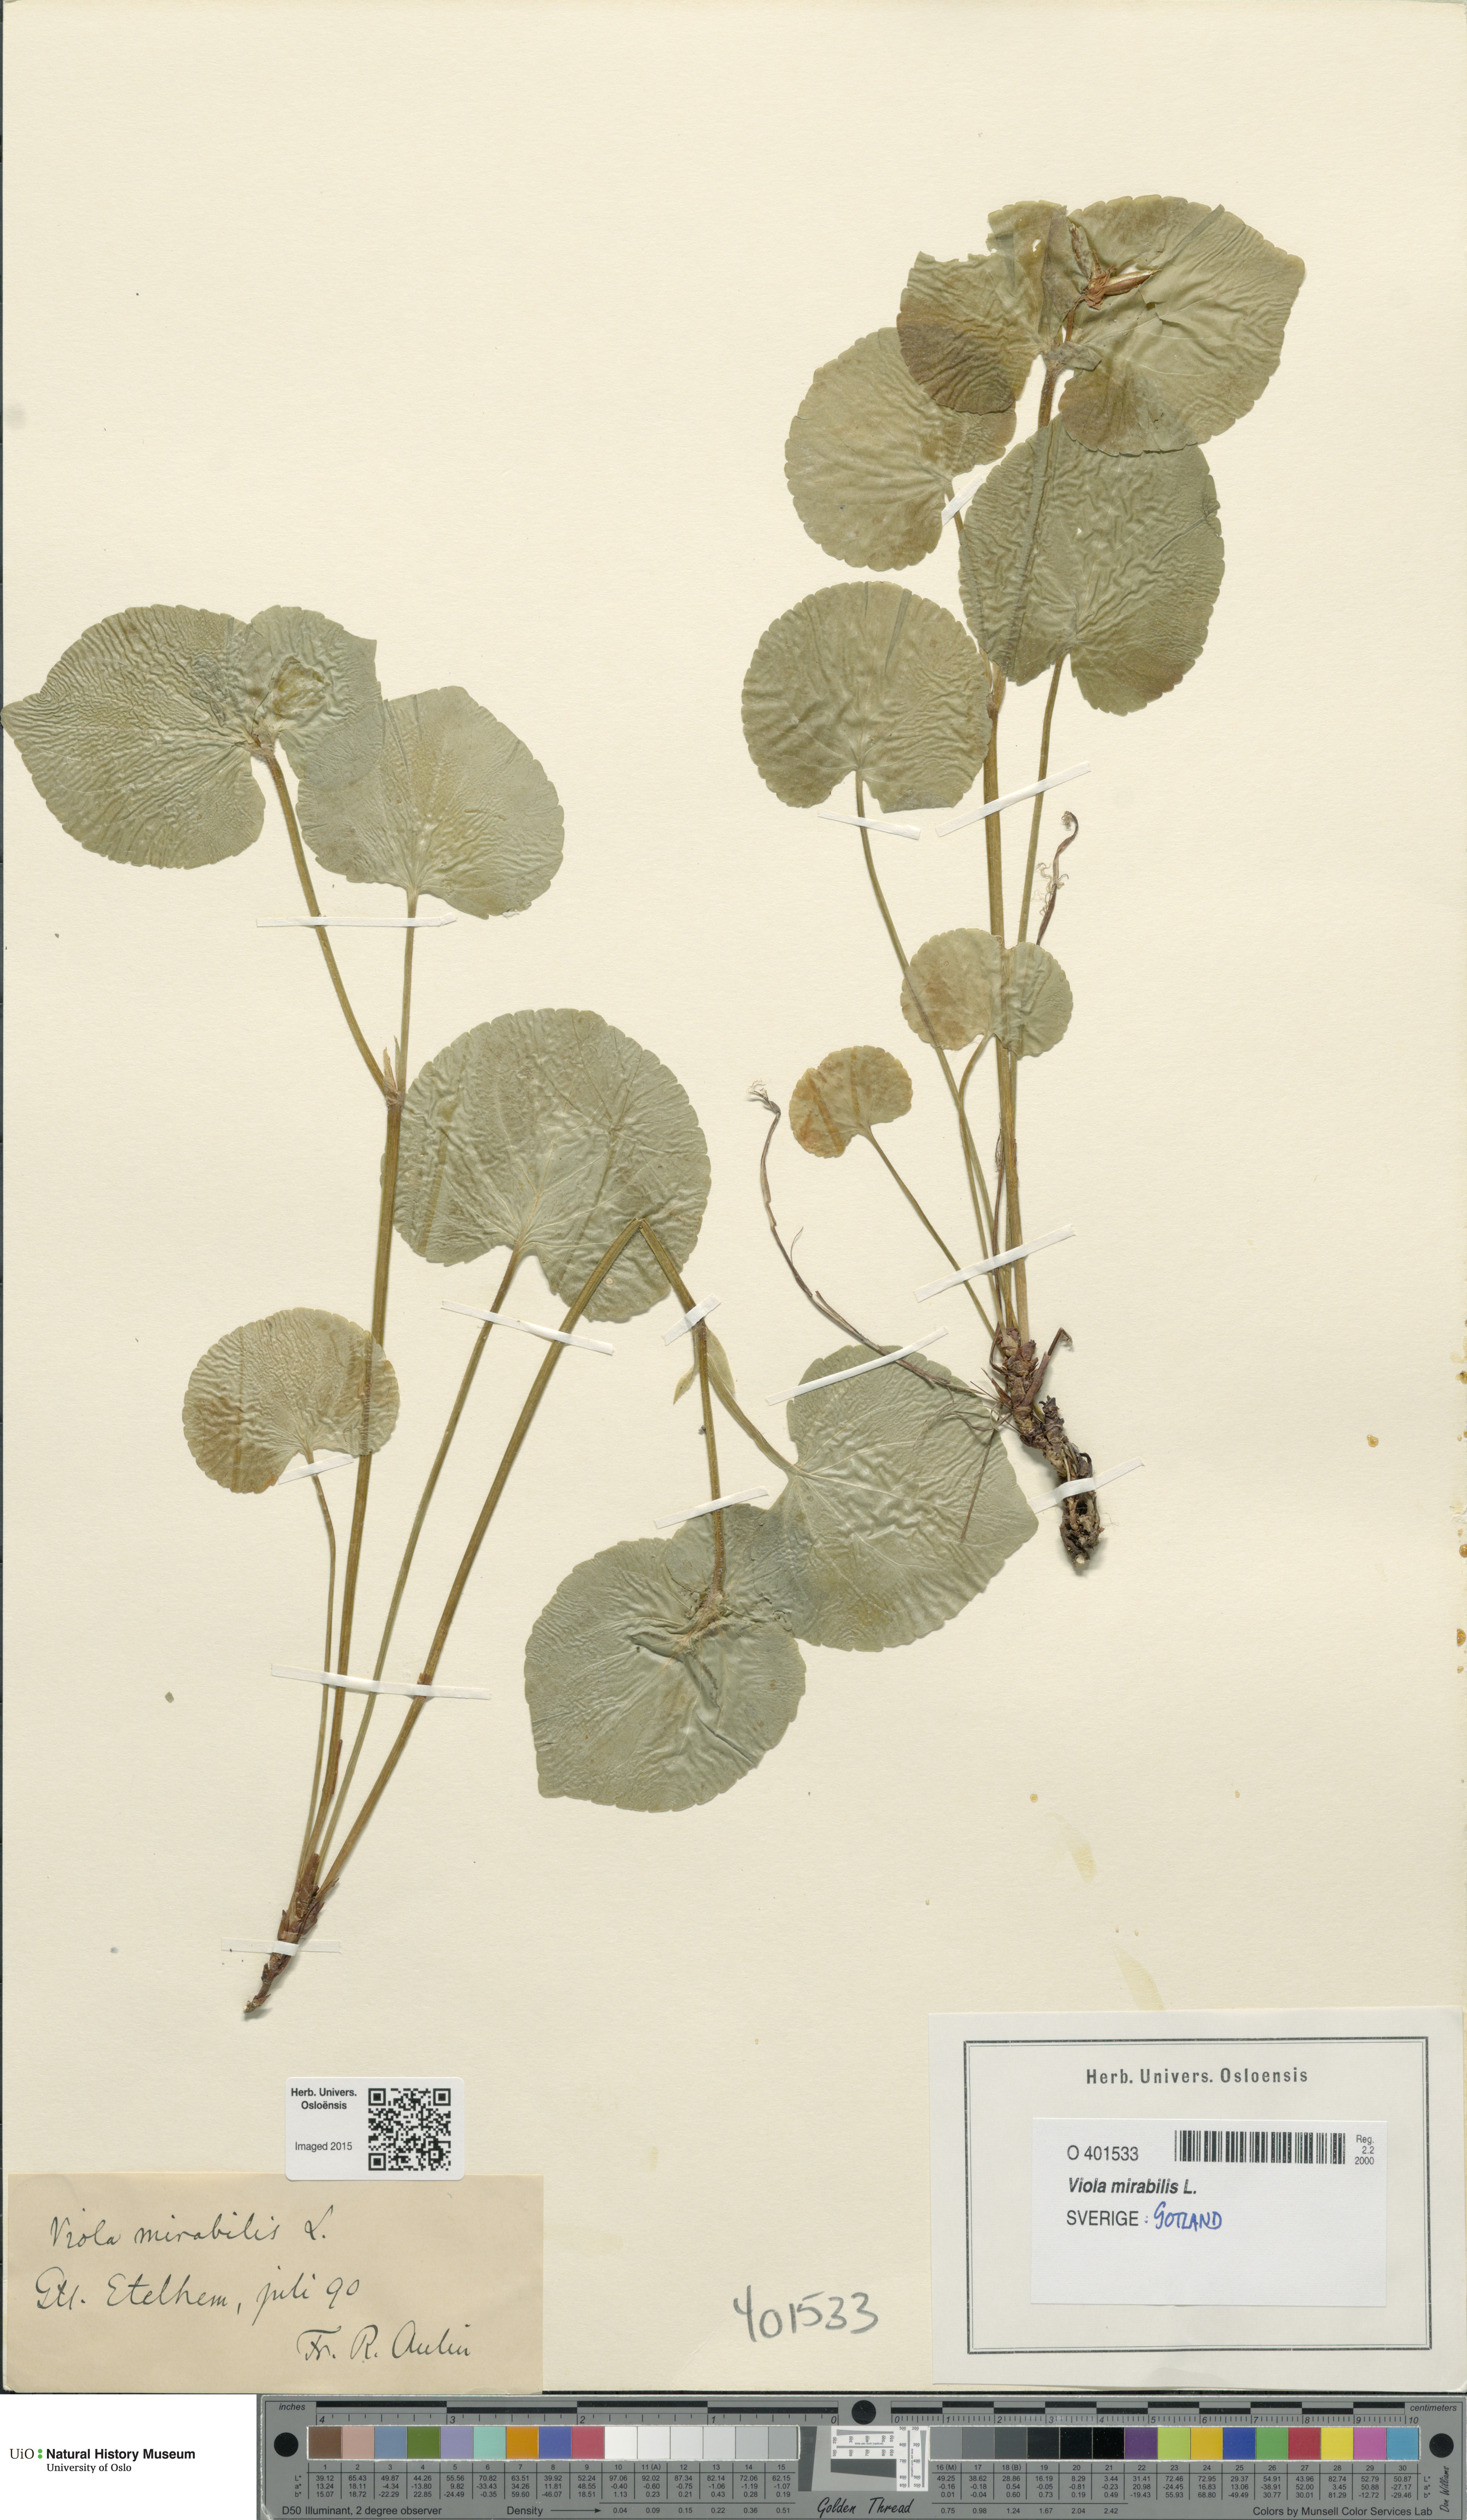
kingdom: Plantae
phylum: Tracheophyta
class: Magnoliopsida
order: Malpighiales
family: Violaceae
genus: Viola
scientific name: Viola mirabilis
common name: Wonder violet
